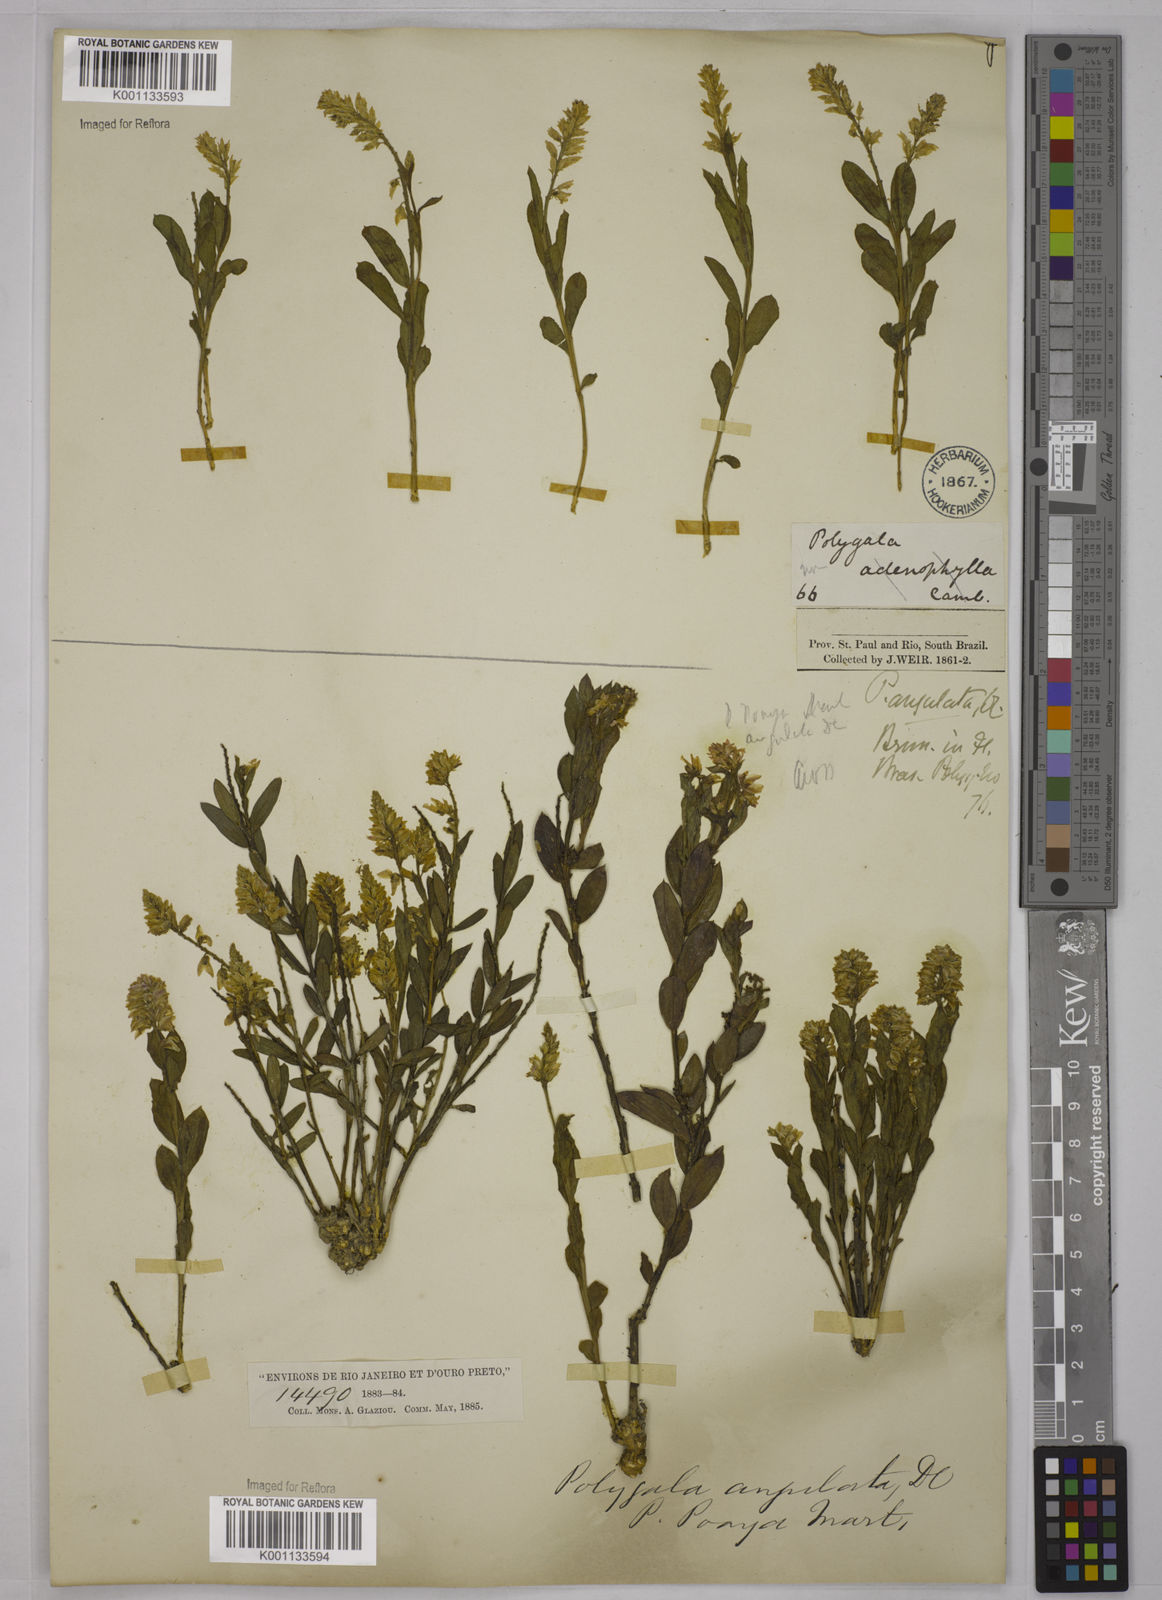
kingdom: Plantae
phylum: Tracheophyta
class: Magnoliopsida
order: Fabales
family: Polygalaceae
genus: Polygala
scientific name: Polygala poaya
